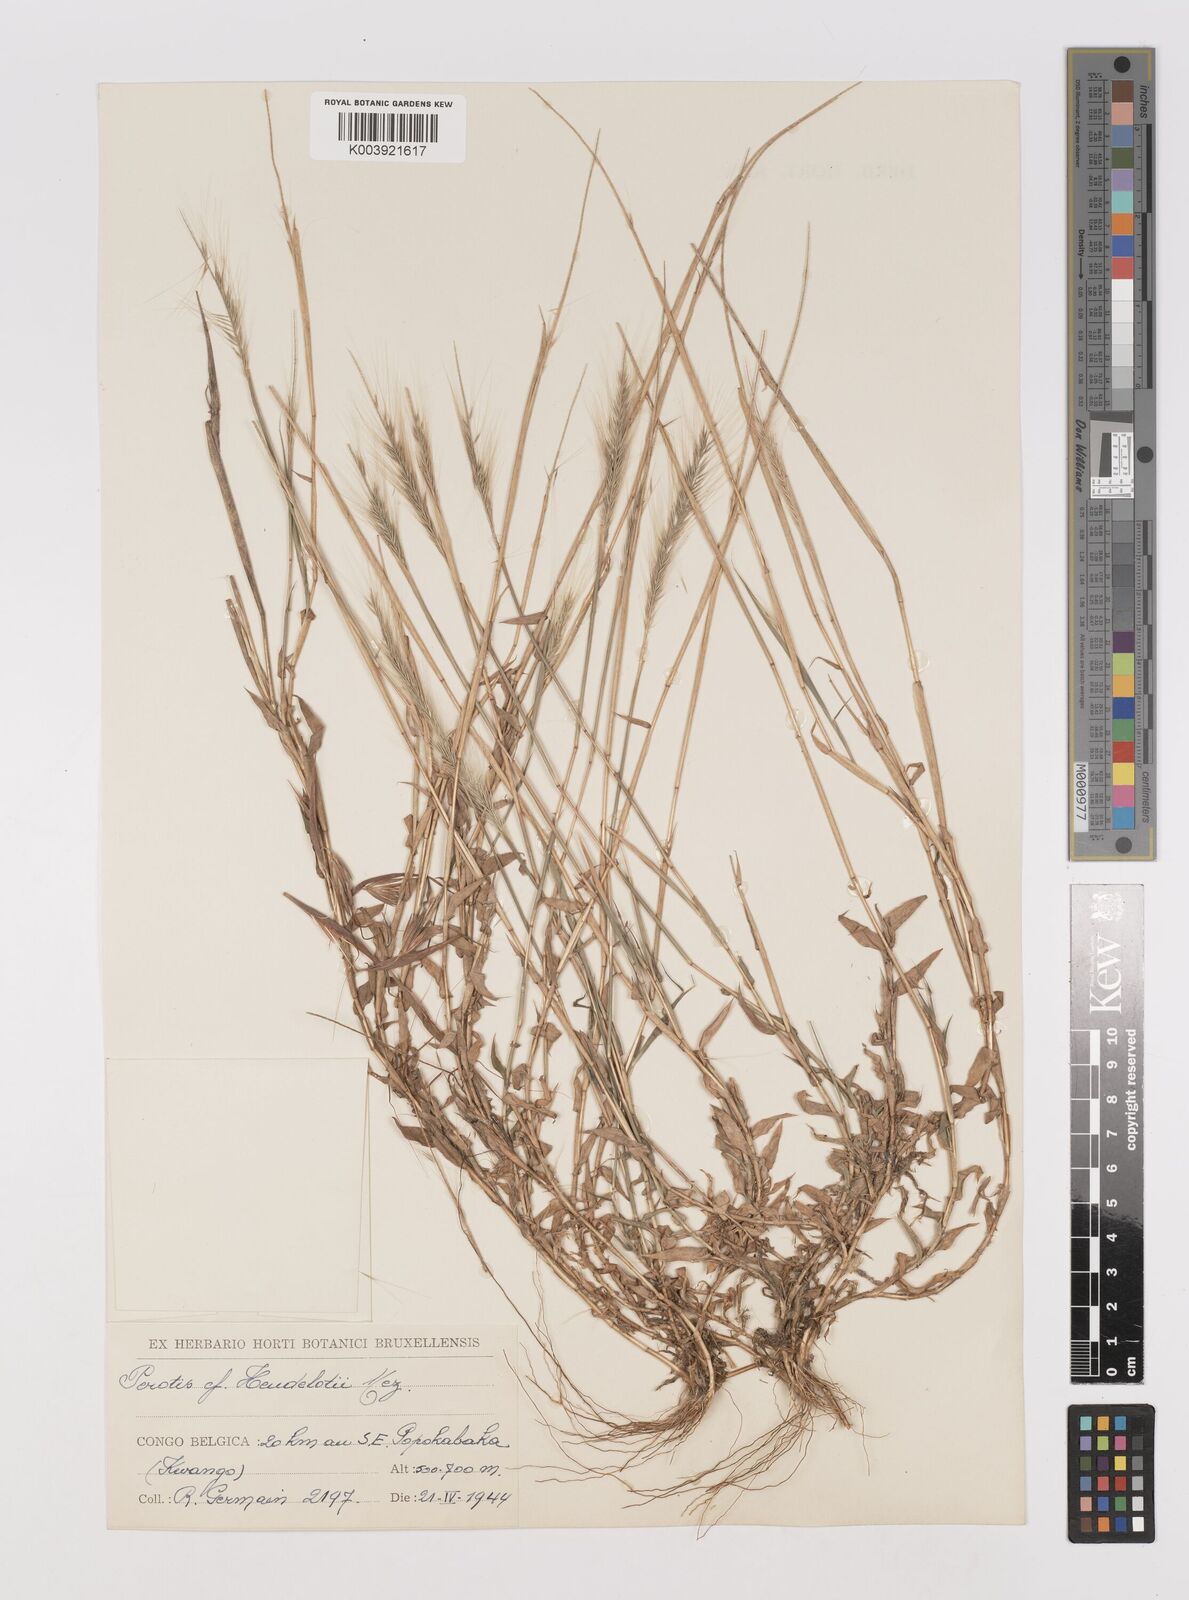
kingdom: Plantae
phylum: Tracheophyta
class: Liliopsida
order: Poales
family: Poaceae
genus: Perotis
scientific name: Perotis vaginata
